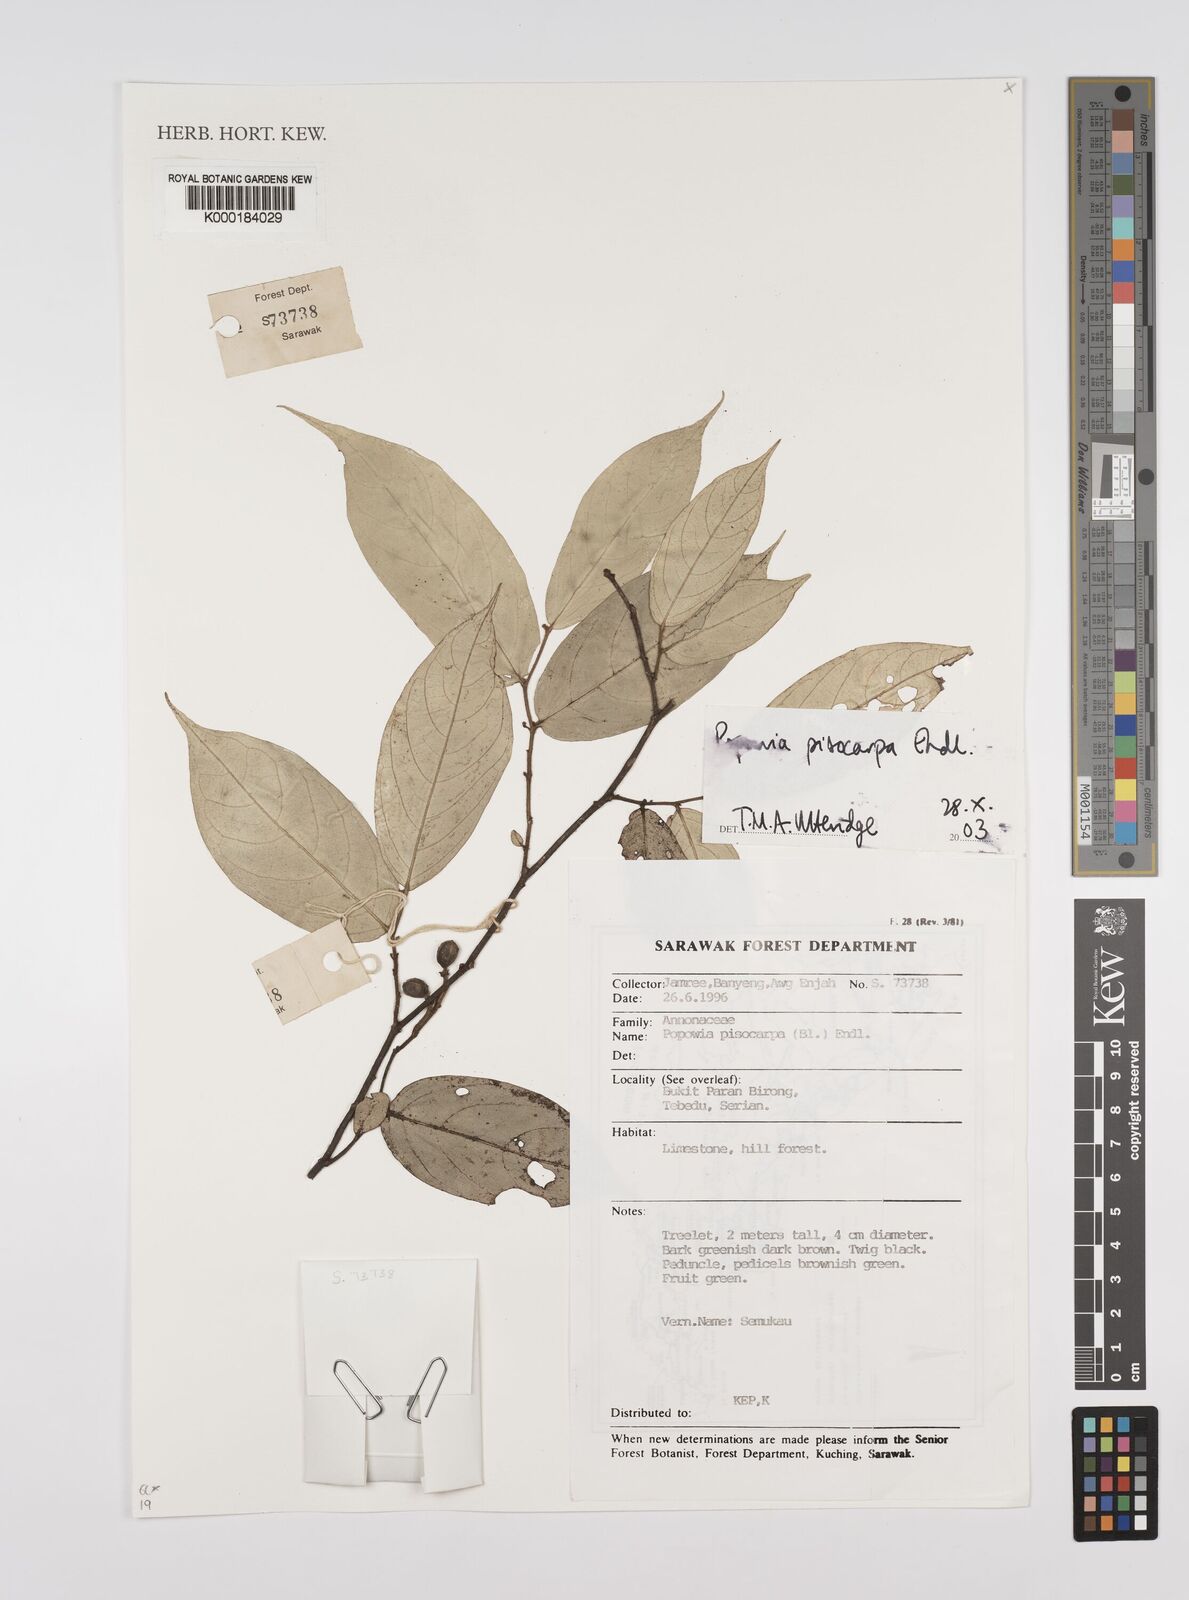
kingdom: Plantae
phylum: Tracheophyta
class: Magnoliopsida
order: Magnoliales
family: Annonaceae
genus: Popowia
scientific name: Popowia
